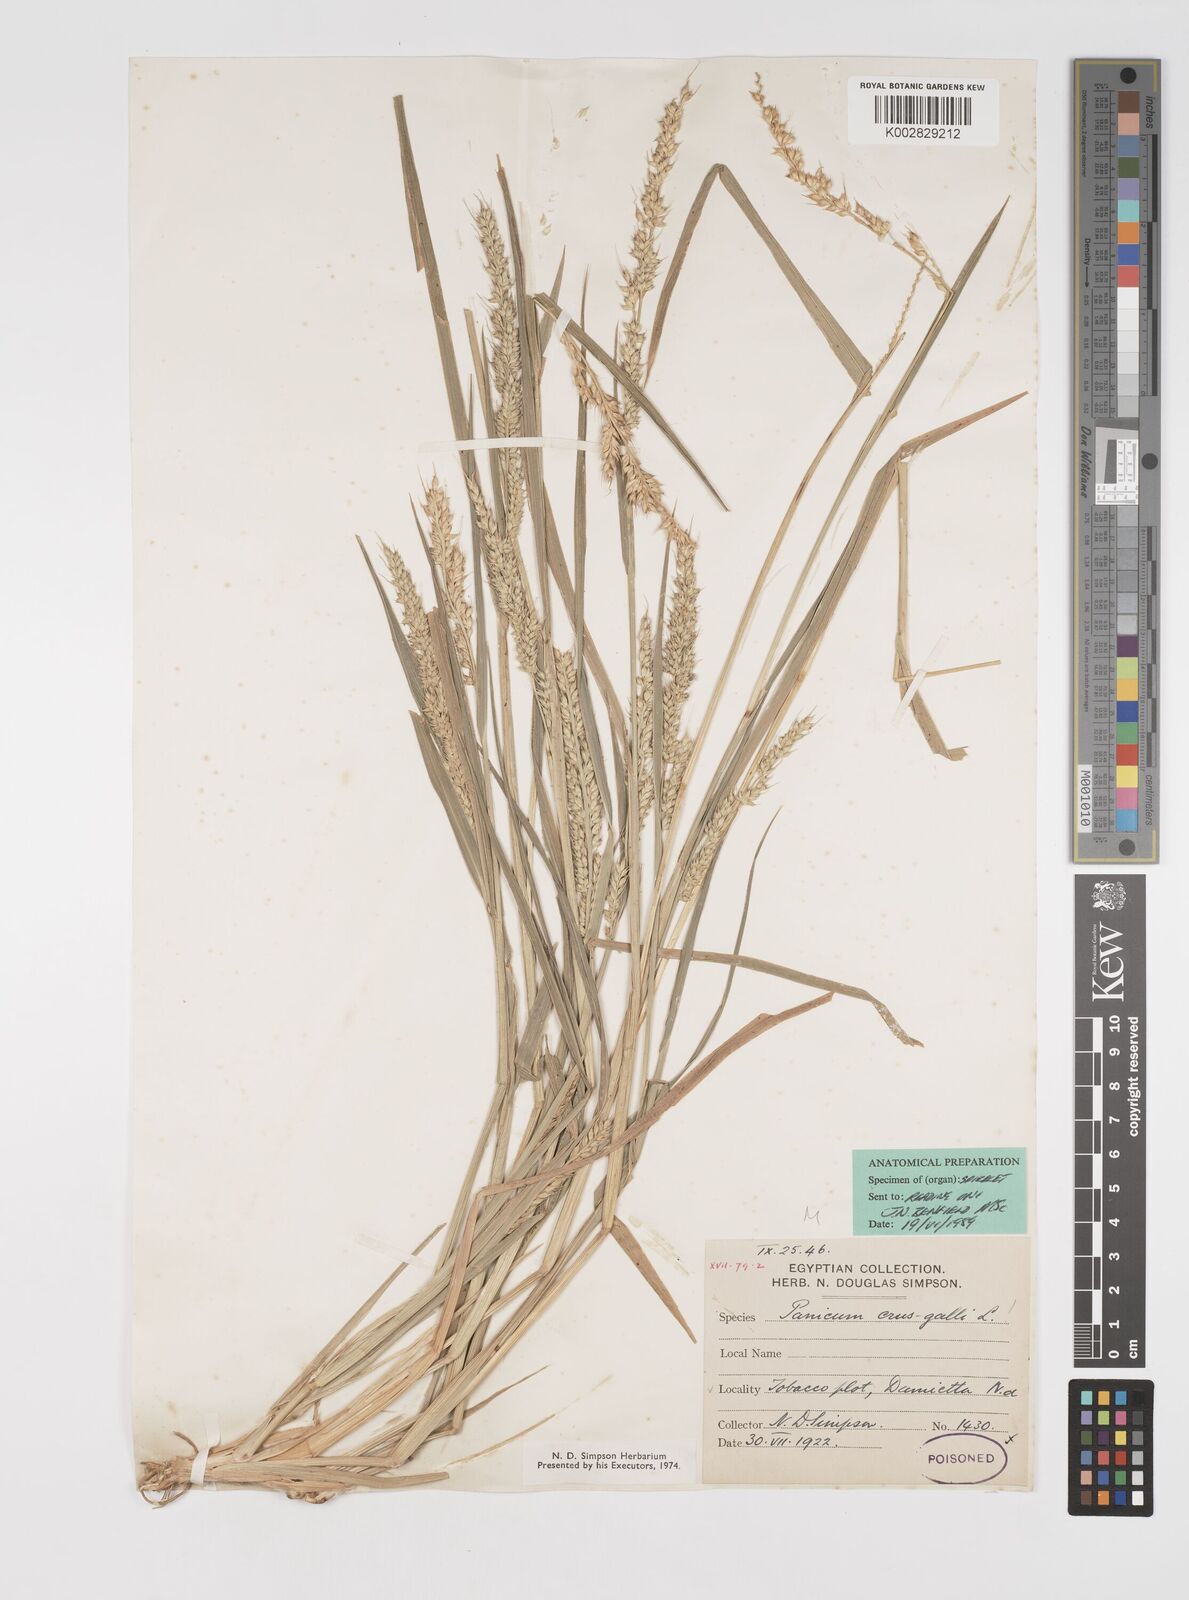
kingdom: Plantae
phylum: Tracheophyta
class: Liliopsida
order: Poales
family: Poaceae
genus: Echinochloa
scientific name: Echinochloa crus-galli
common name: Cockspur
